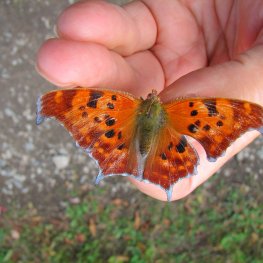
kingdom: Animalia
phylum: Arthropoda
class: Insecta
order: Lepidoptera
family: Nymphalidae
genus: Polygonia
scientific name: Polygonia interrogationis
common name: Question Mark
